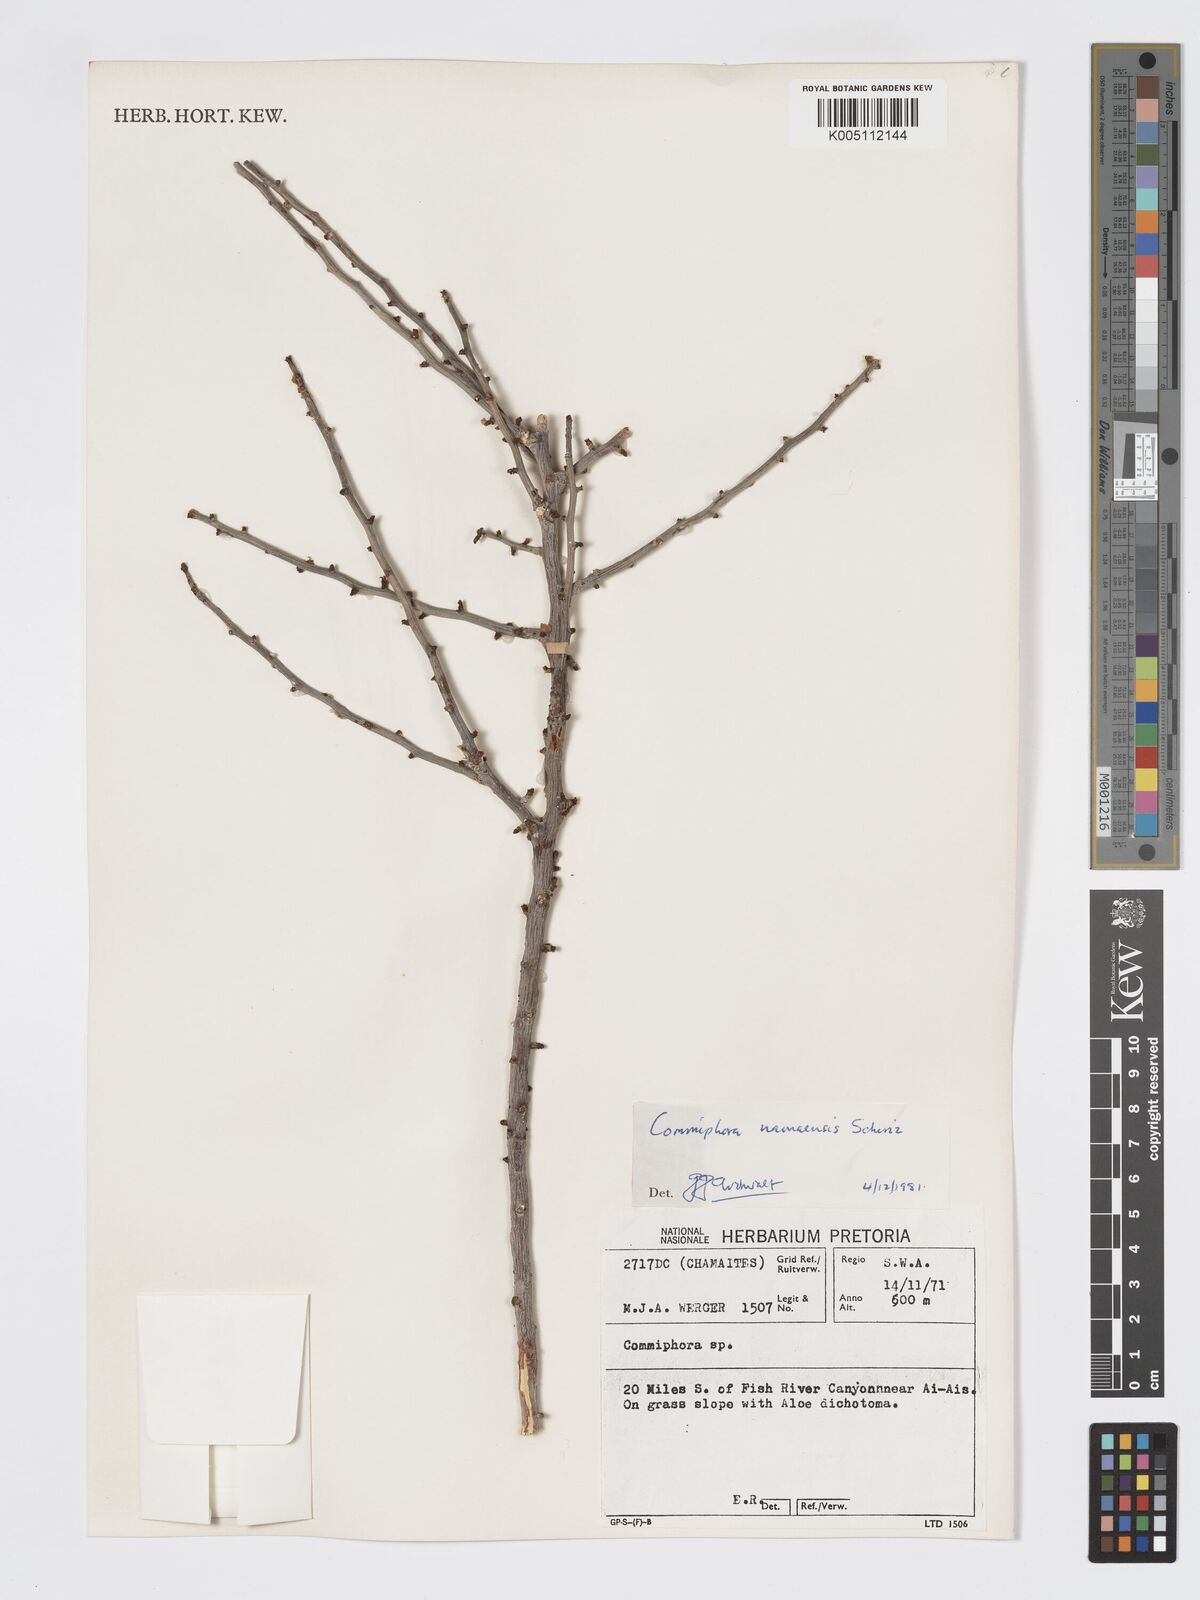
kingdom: Plantae
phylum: Tracheophyta
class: Magnoliopsida
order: Sapindales
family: Burseraceae
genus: Commiphora
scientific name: Commiphora namaensis
